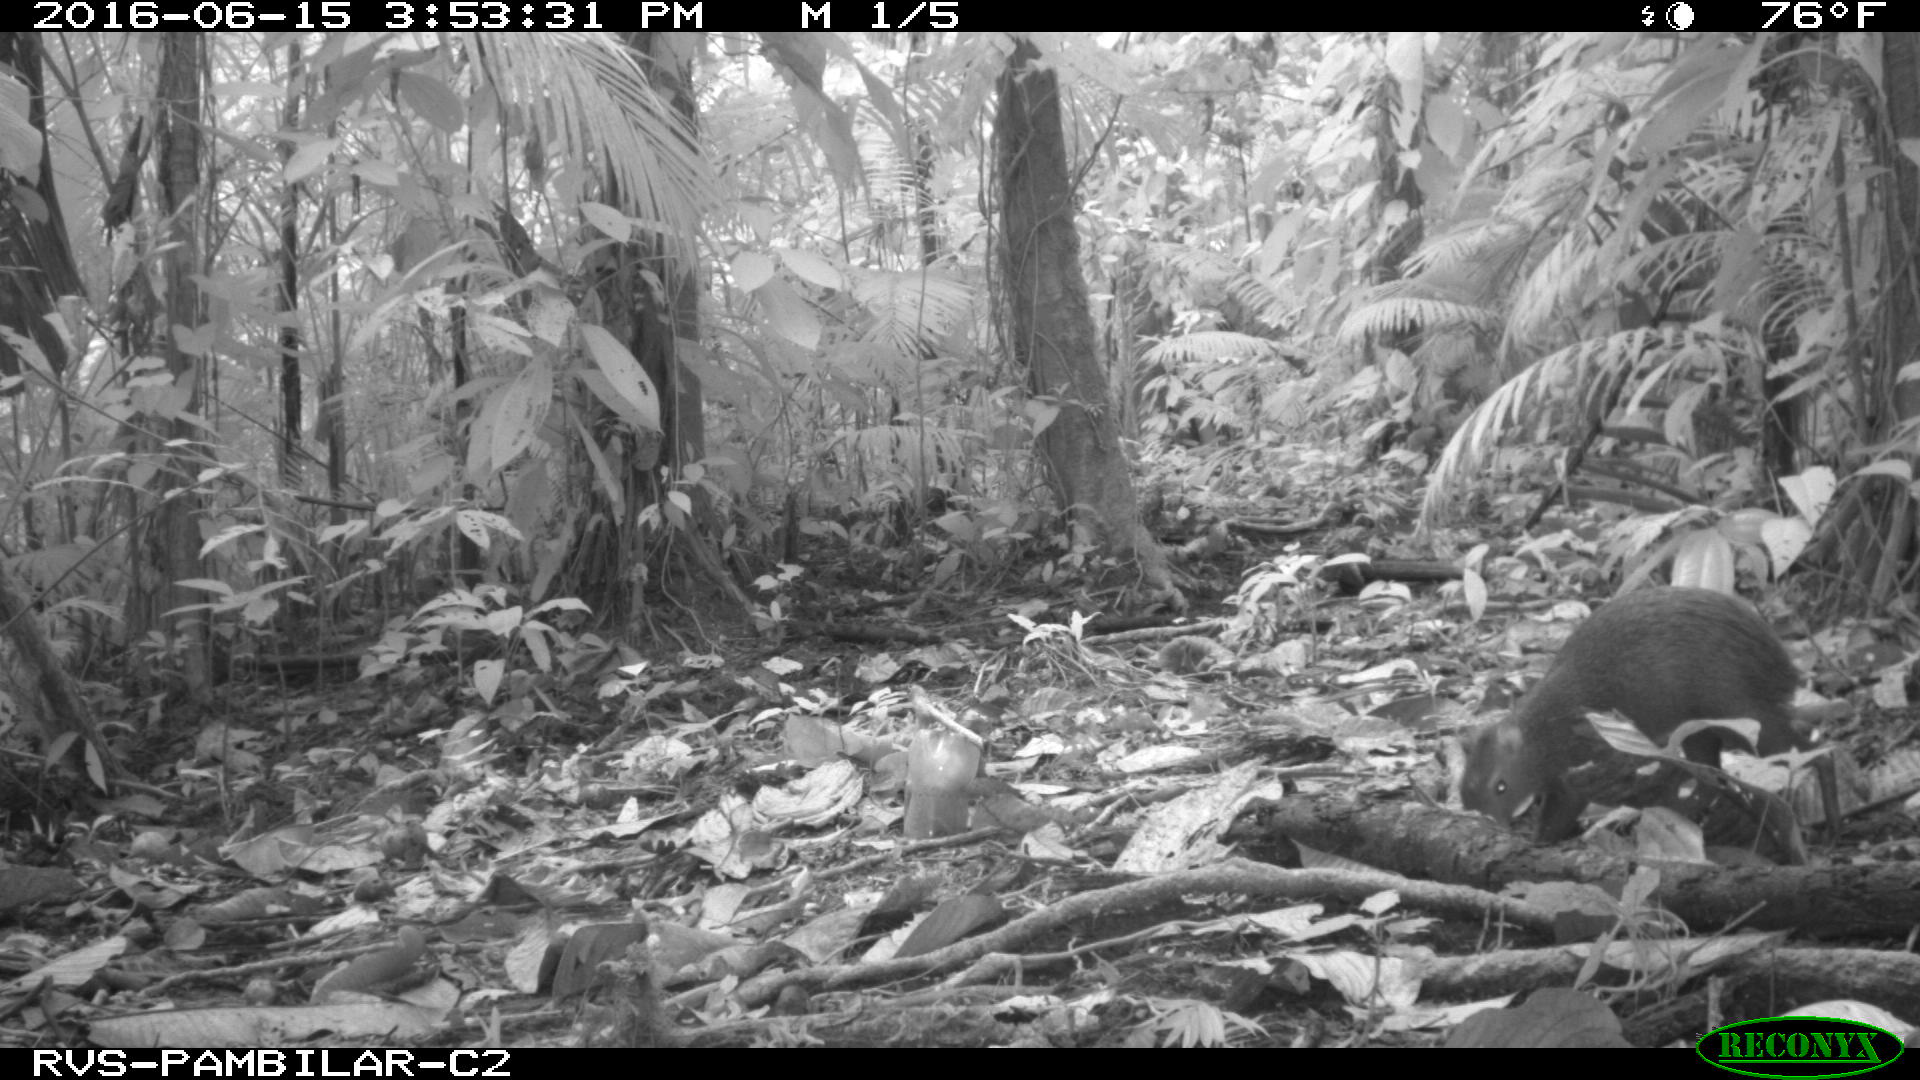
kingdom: Animalia
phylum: Chordata
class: Mammalia
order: Rodentia
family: Dasyproctidae
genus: Dasyprocta
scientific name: Dasyprocta punctata
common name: Central american agouti
